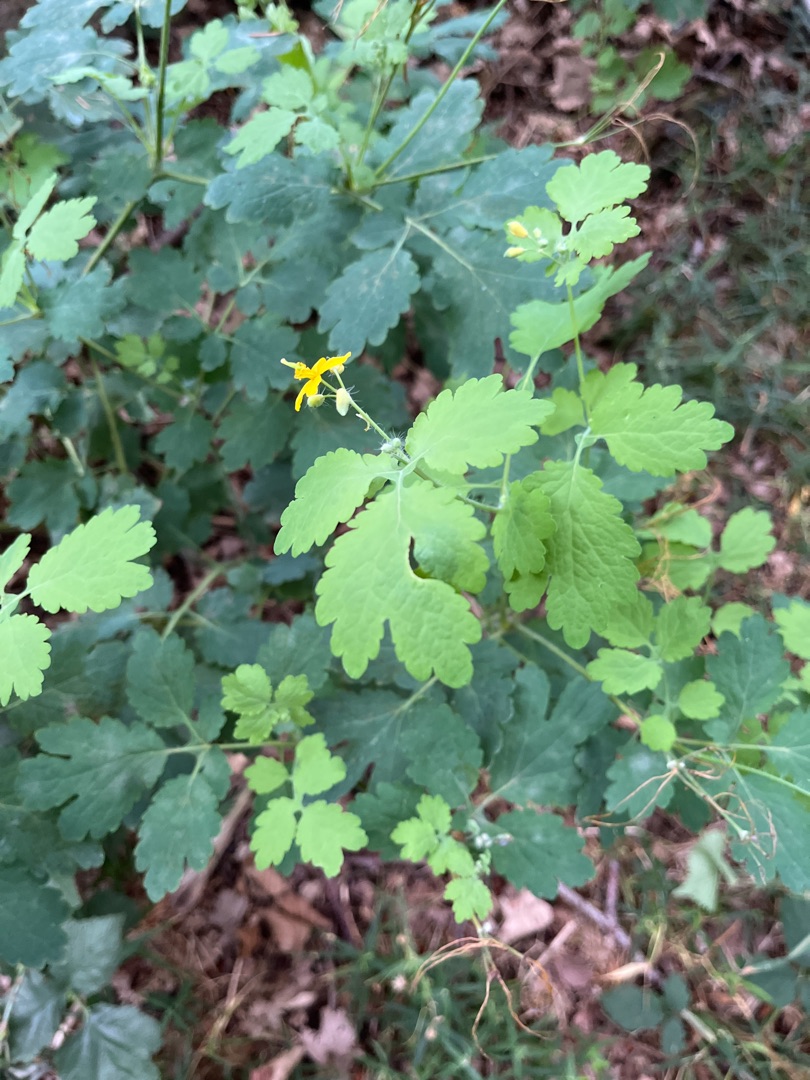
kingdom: Plantae
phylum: Tracheophyta
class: Magnoliopsida
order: Ranunculales
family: Papaveraceae
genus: Chelidonium
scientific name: Chelidonium majus
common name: Svaleurt
